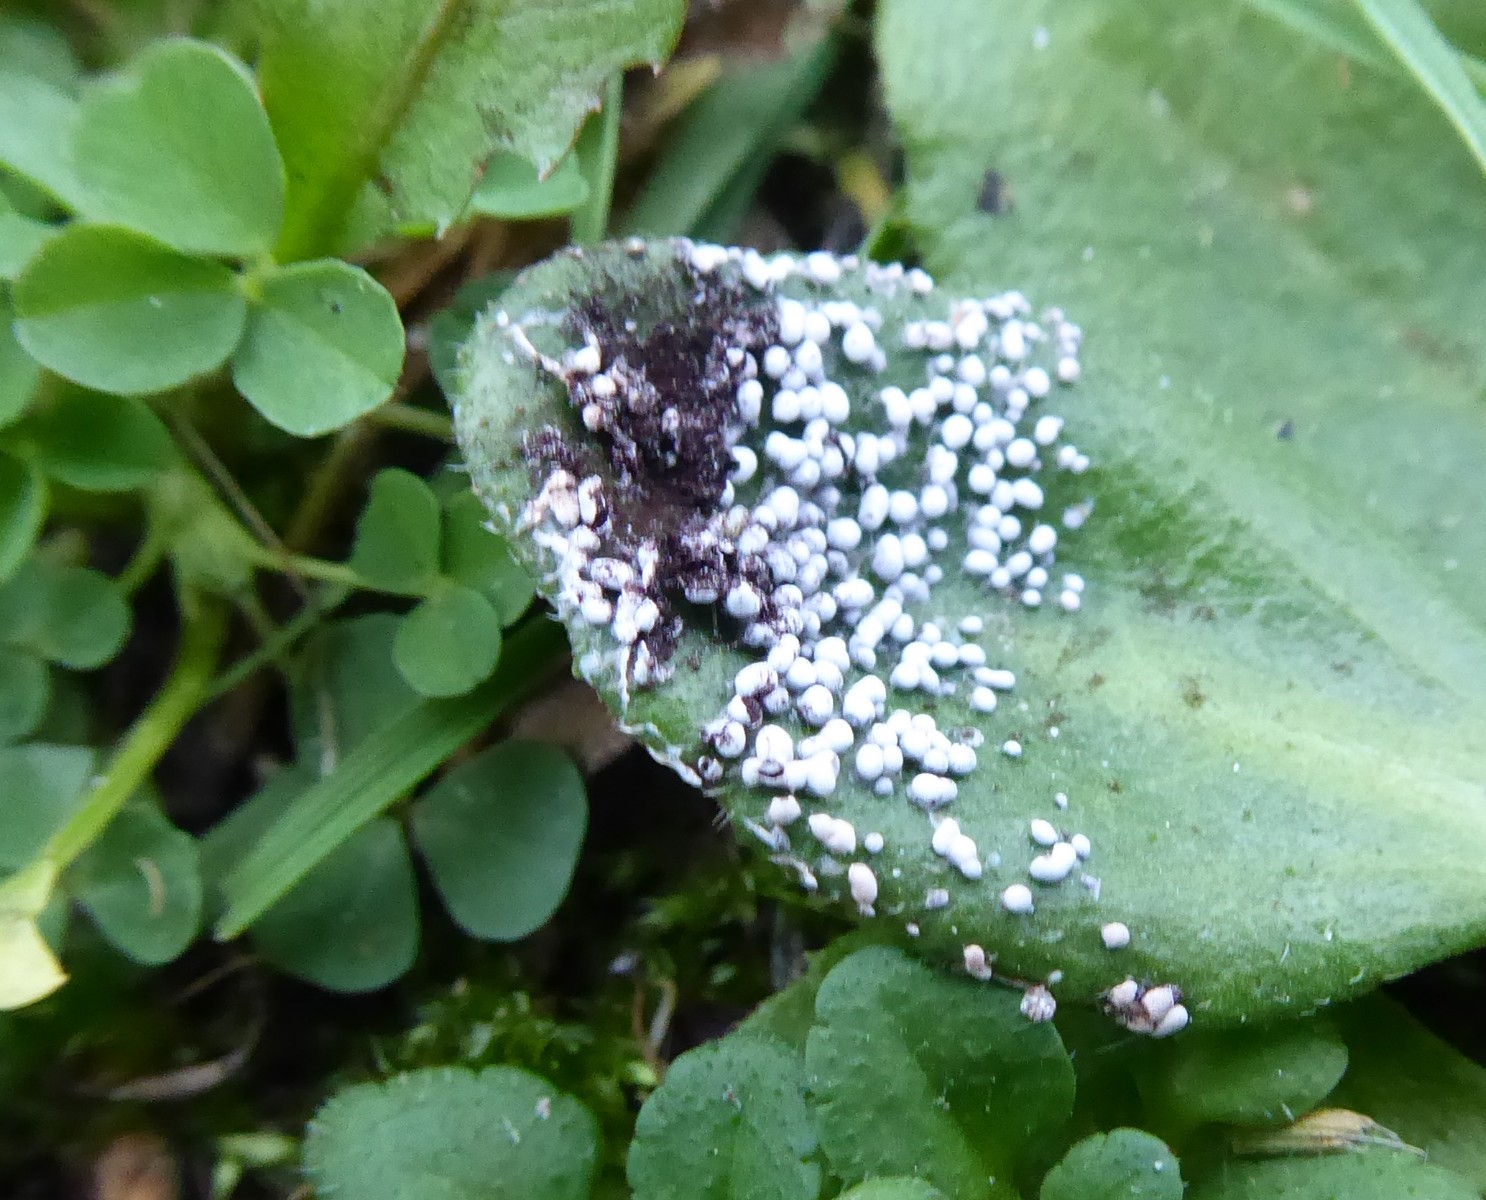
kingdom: Protozoa
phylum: Mycetozoa
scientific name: Mycetozoa
